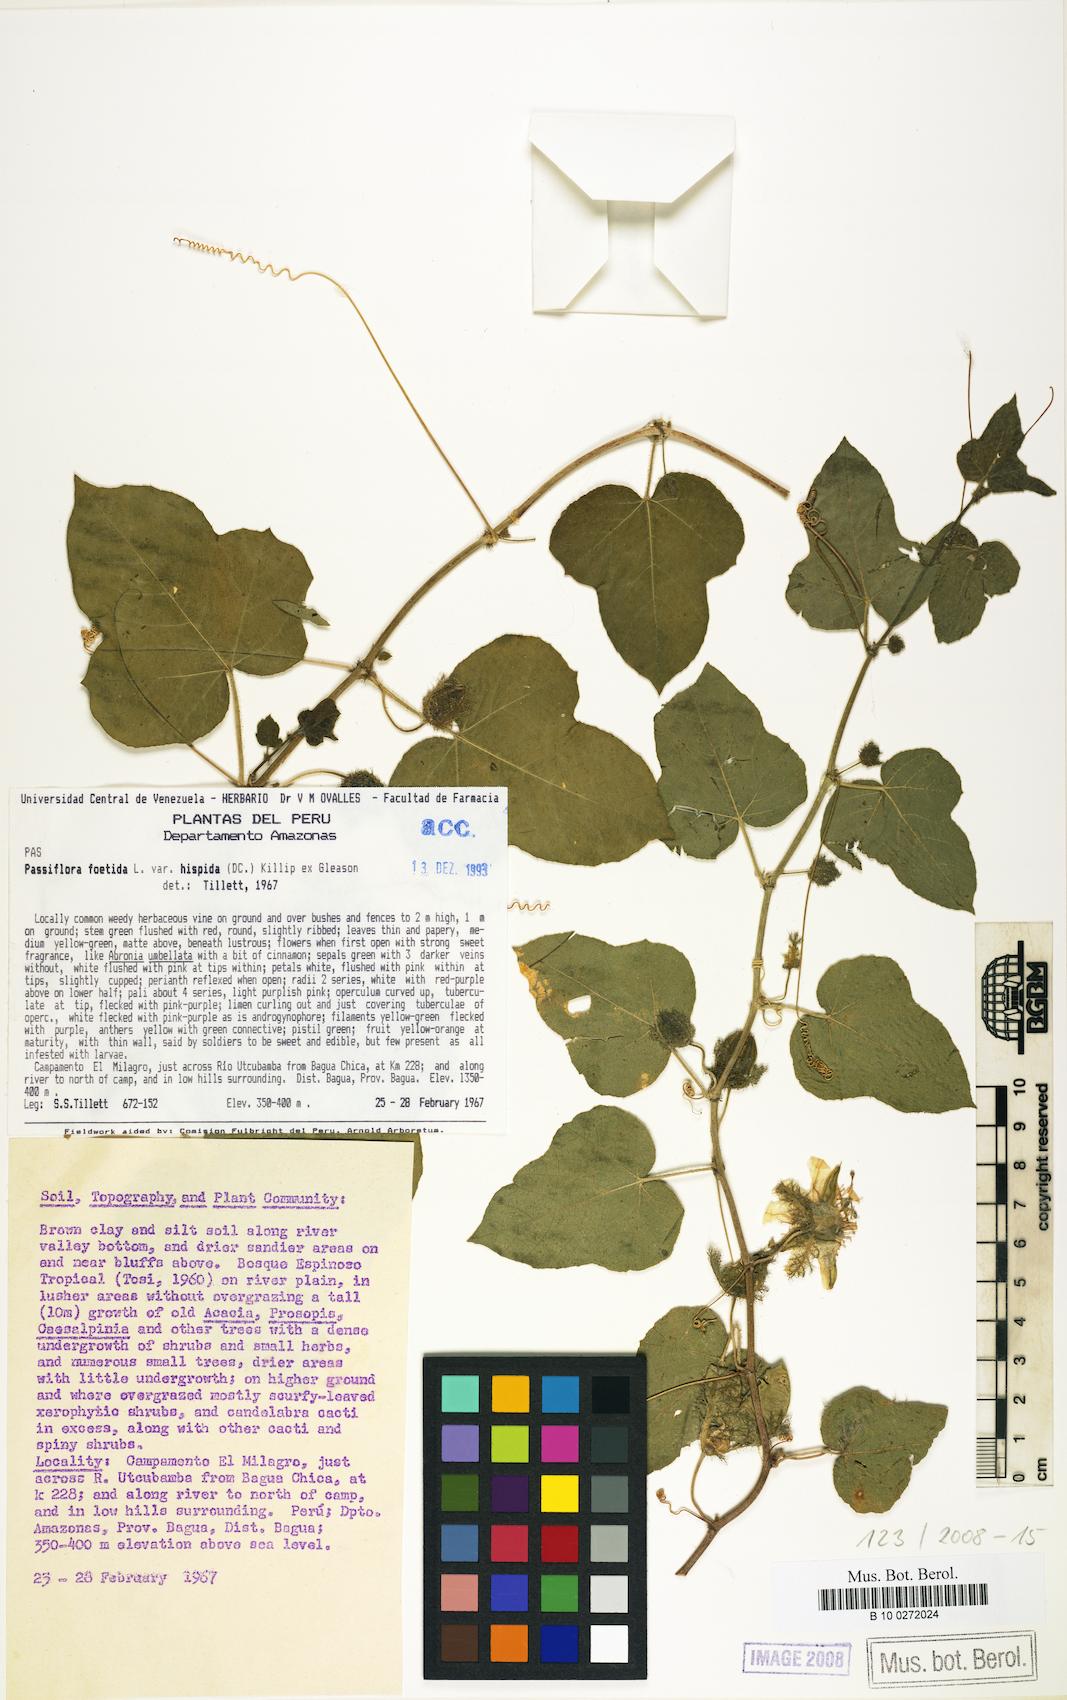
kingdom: Plantae
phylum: Tracheophyta
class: Magnoliopsida
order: Malpighiales
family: Passifloraceae
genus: Passiflora
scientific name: Passiflora vesicaria
